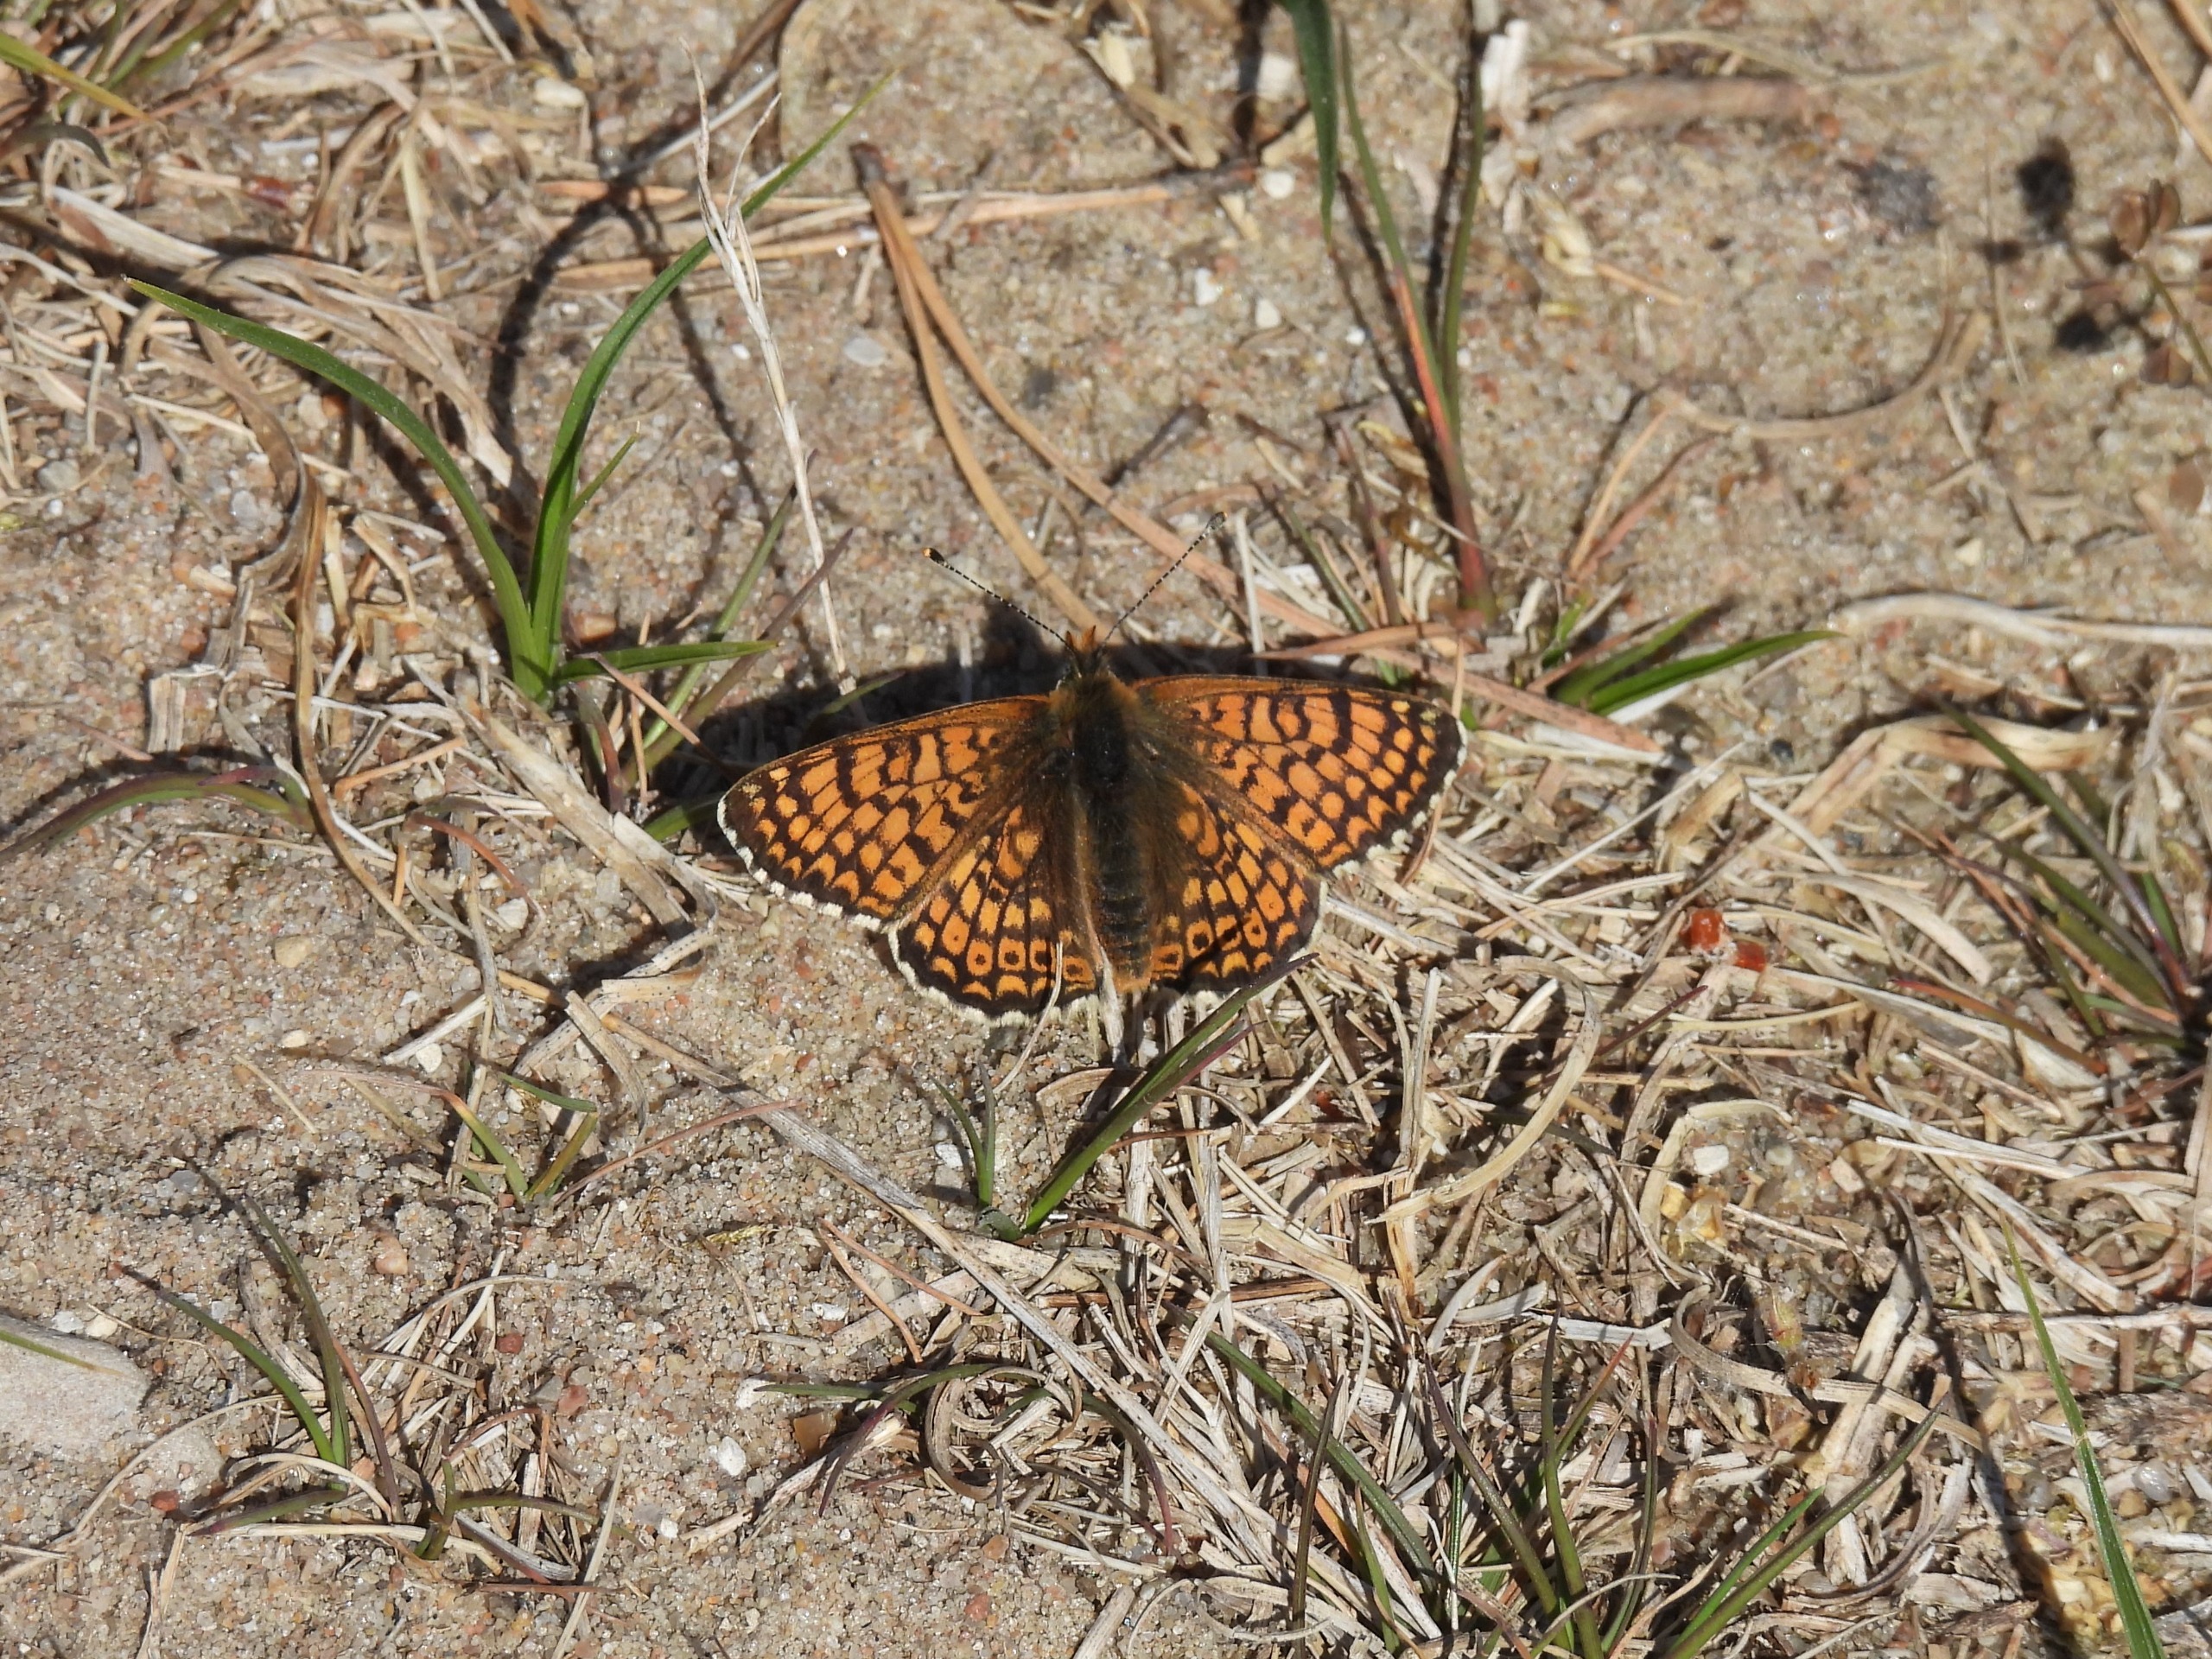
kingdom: Animalia
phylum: Arthropoda
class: Insecta
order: Lepidoptera
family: Nymphalidae
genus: Melitaea
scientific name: Melitaea cinxia
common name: Okkergul pletvinge
